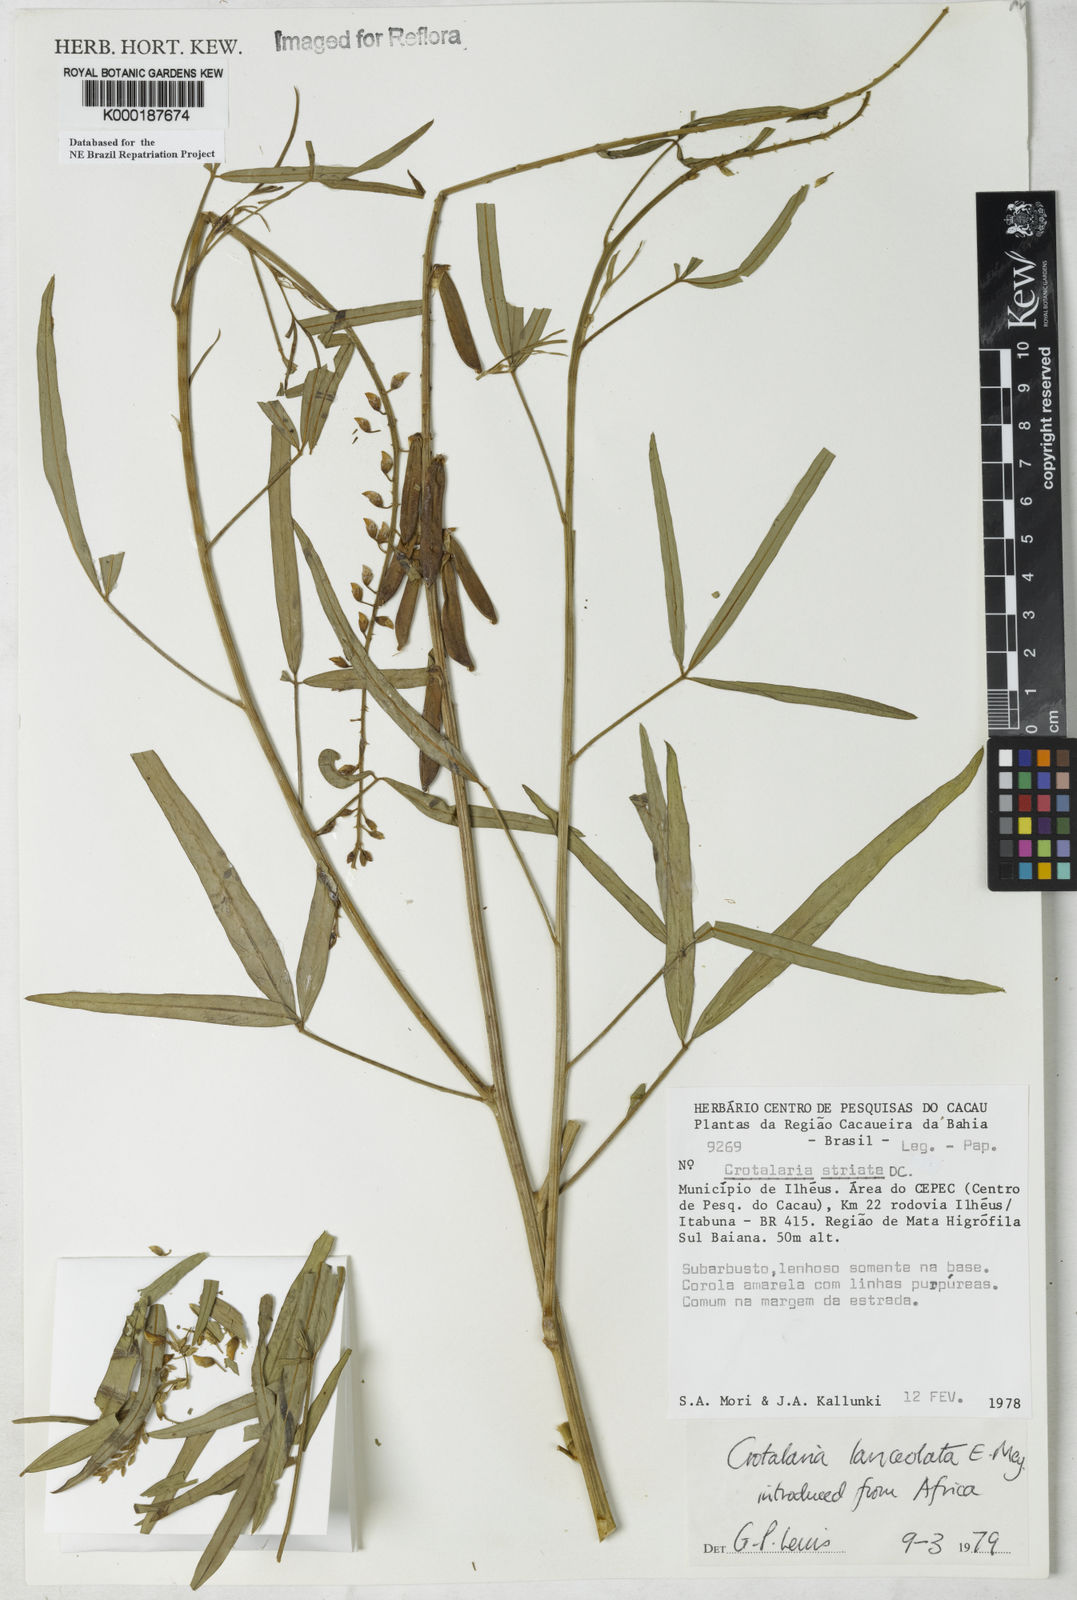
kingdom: Plantae
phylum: Tracheophyta
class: Magnoliopsida
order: Fabales
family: Fabaceae
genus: Crotalaria
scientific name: Crotalaria lanceolata
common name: Lanceleaf rattlebox
